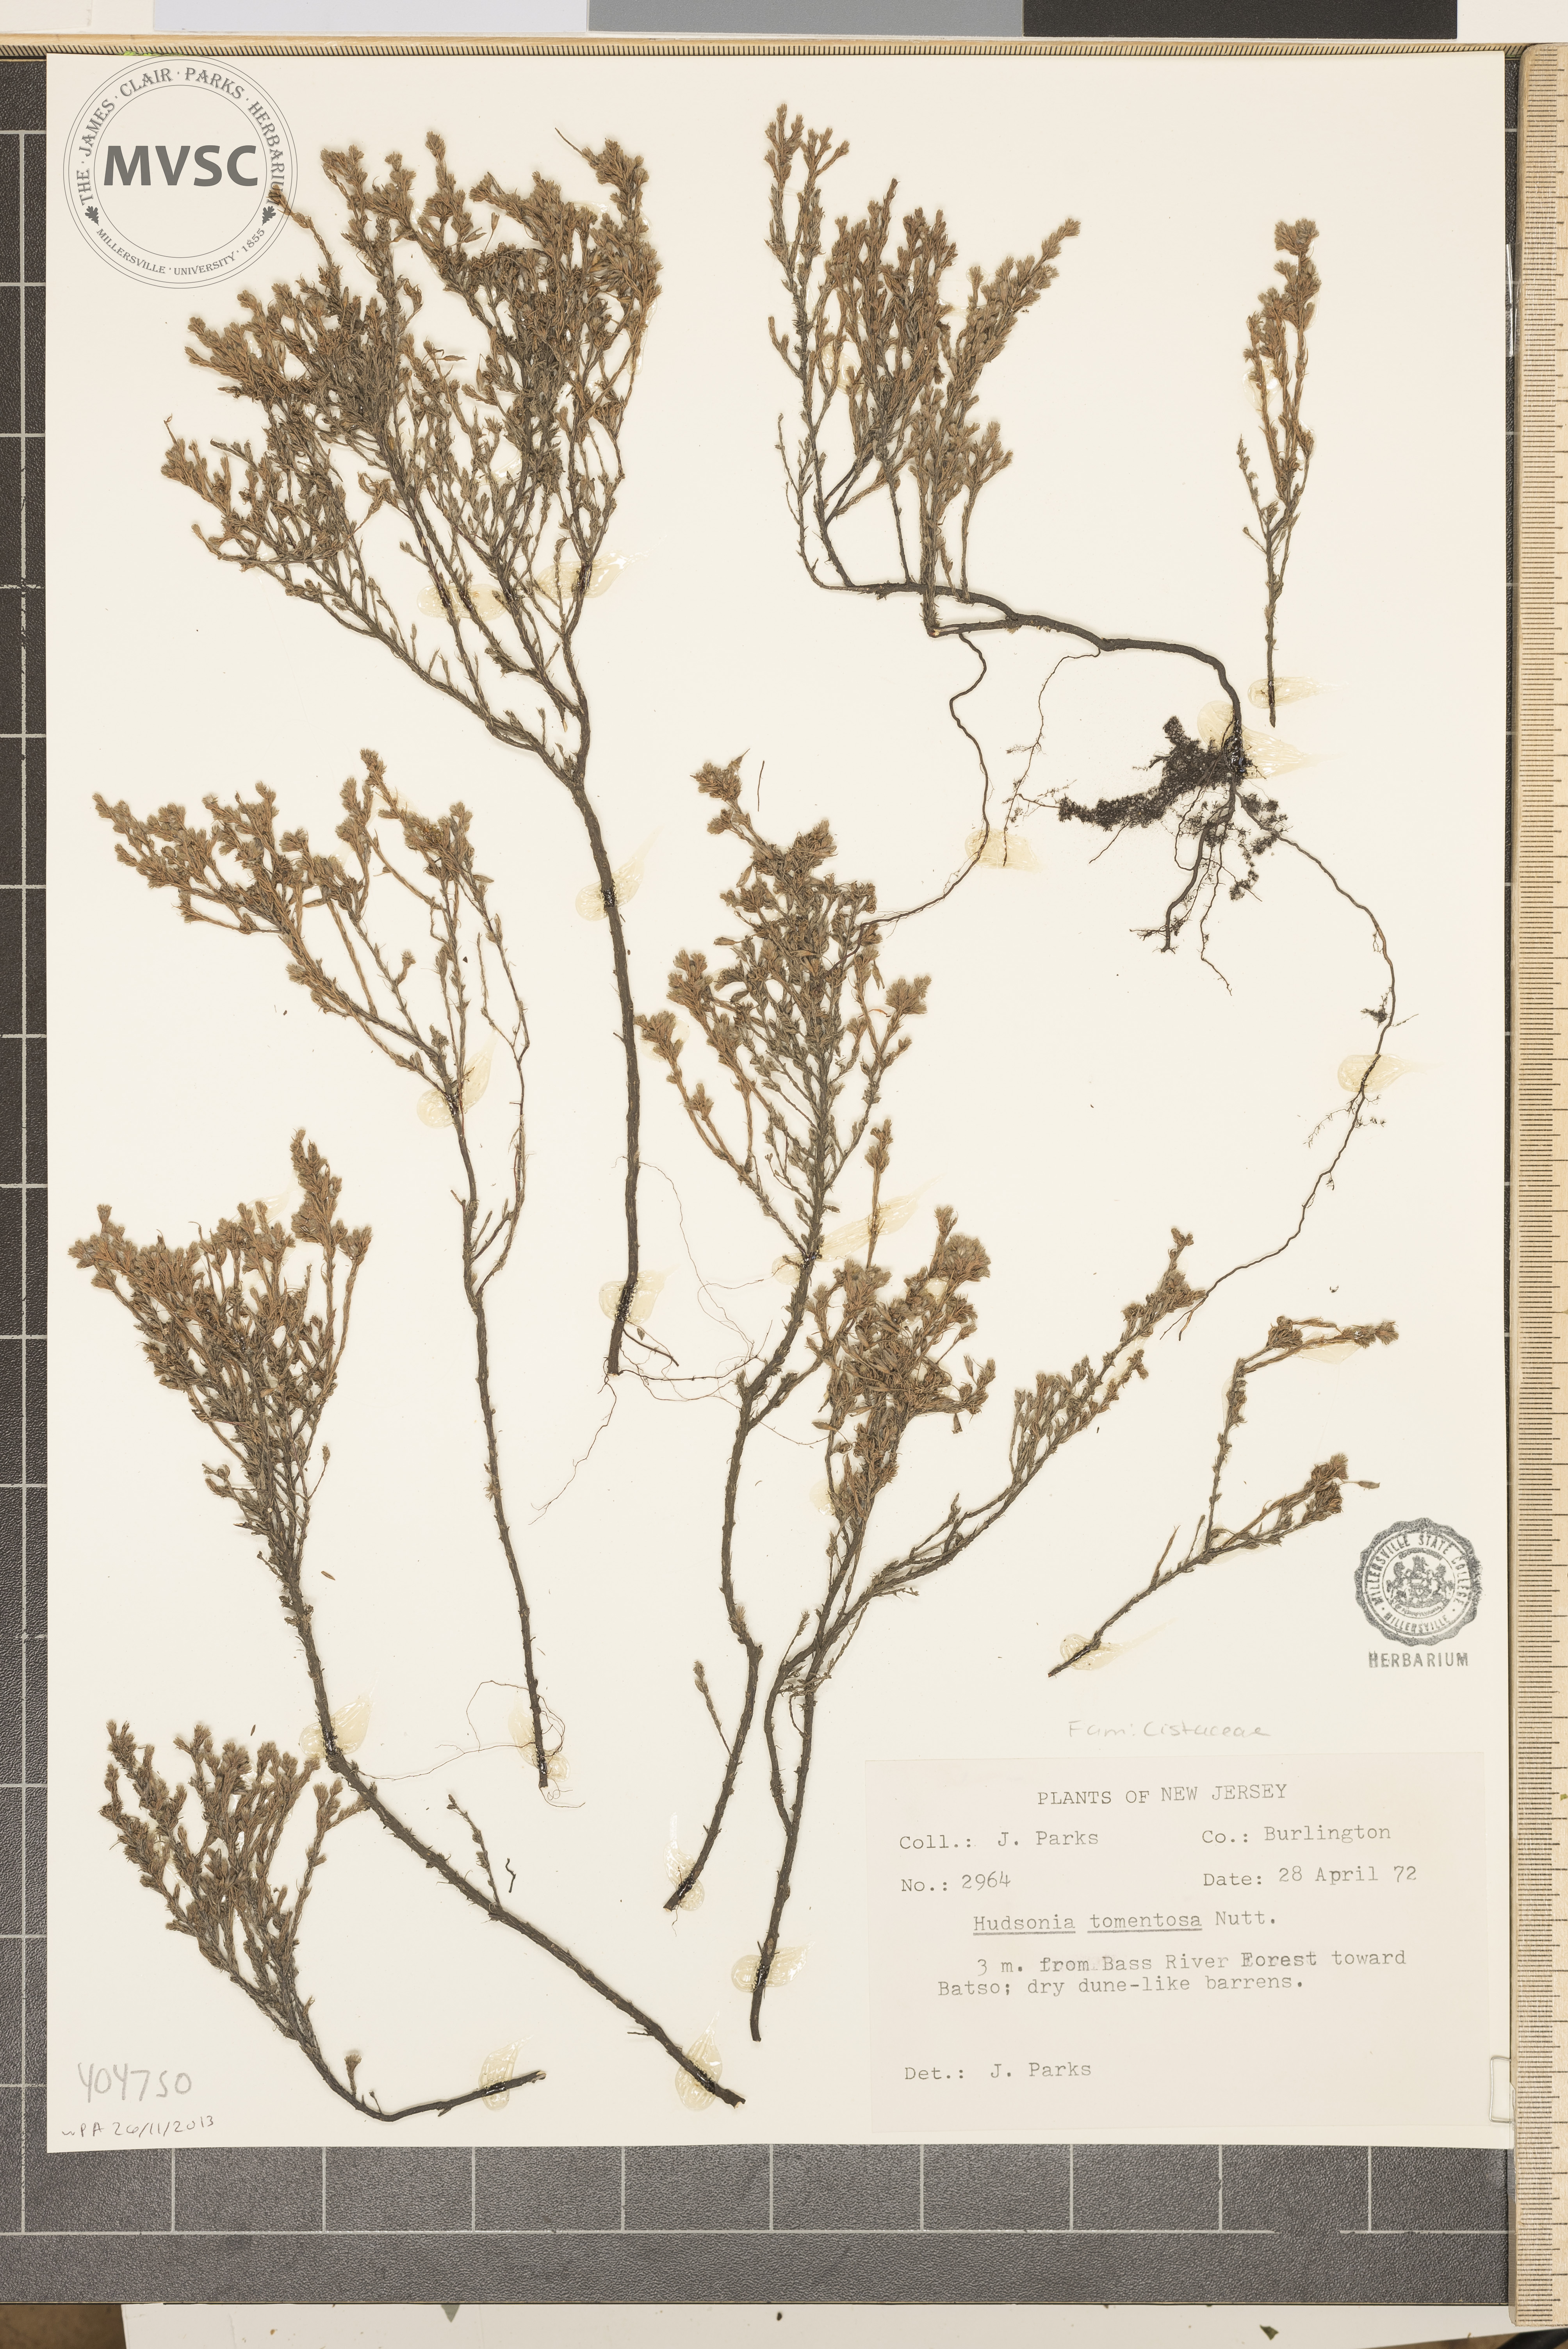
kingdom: Plantae
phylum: Tracheophyta
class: Magnoliopsida
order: Malvales
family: Cistaceae
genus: Hudsonia
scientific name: Hudsonia tomentosa
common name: Beach-heath
